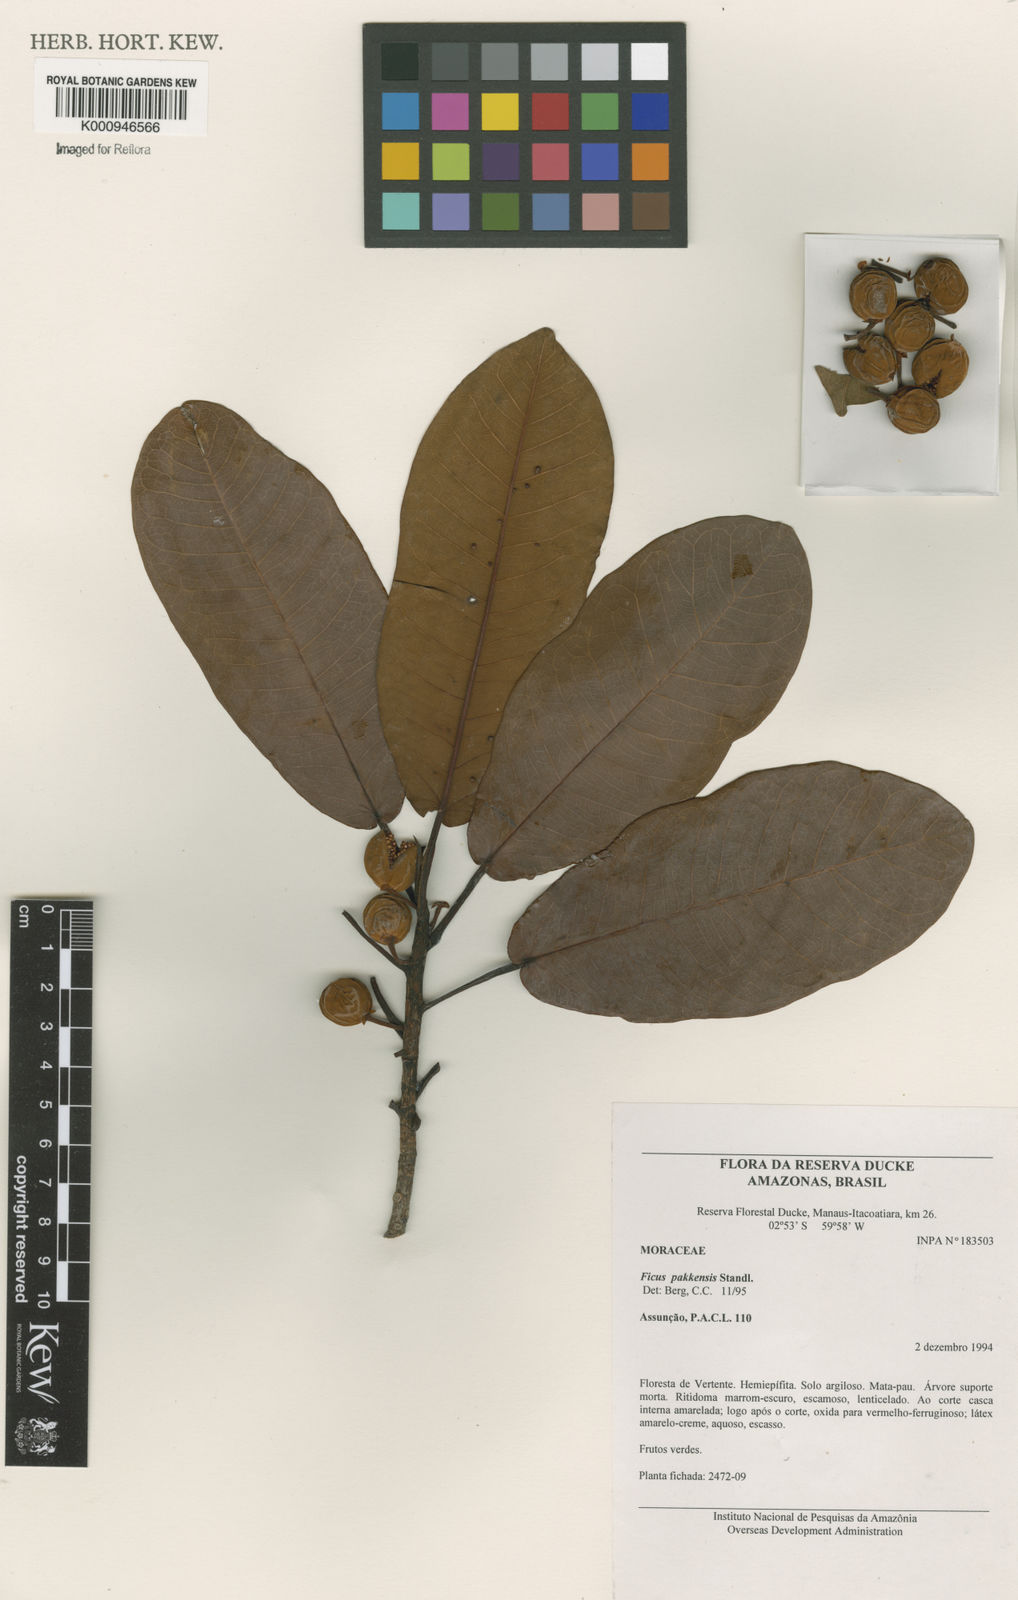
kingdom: Plantae
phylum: Tracheophyta
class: Magnoliopsida
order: Rosales
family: Moraceae
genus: Ficus
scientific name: Ficus pakkensis
